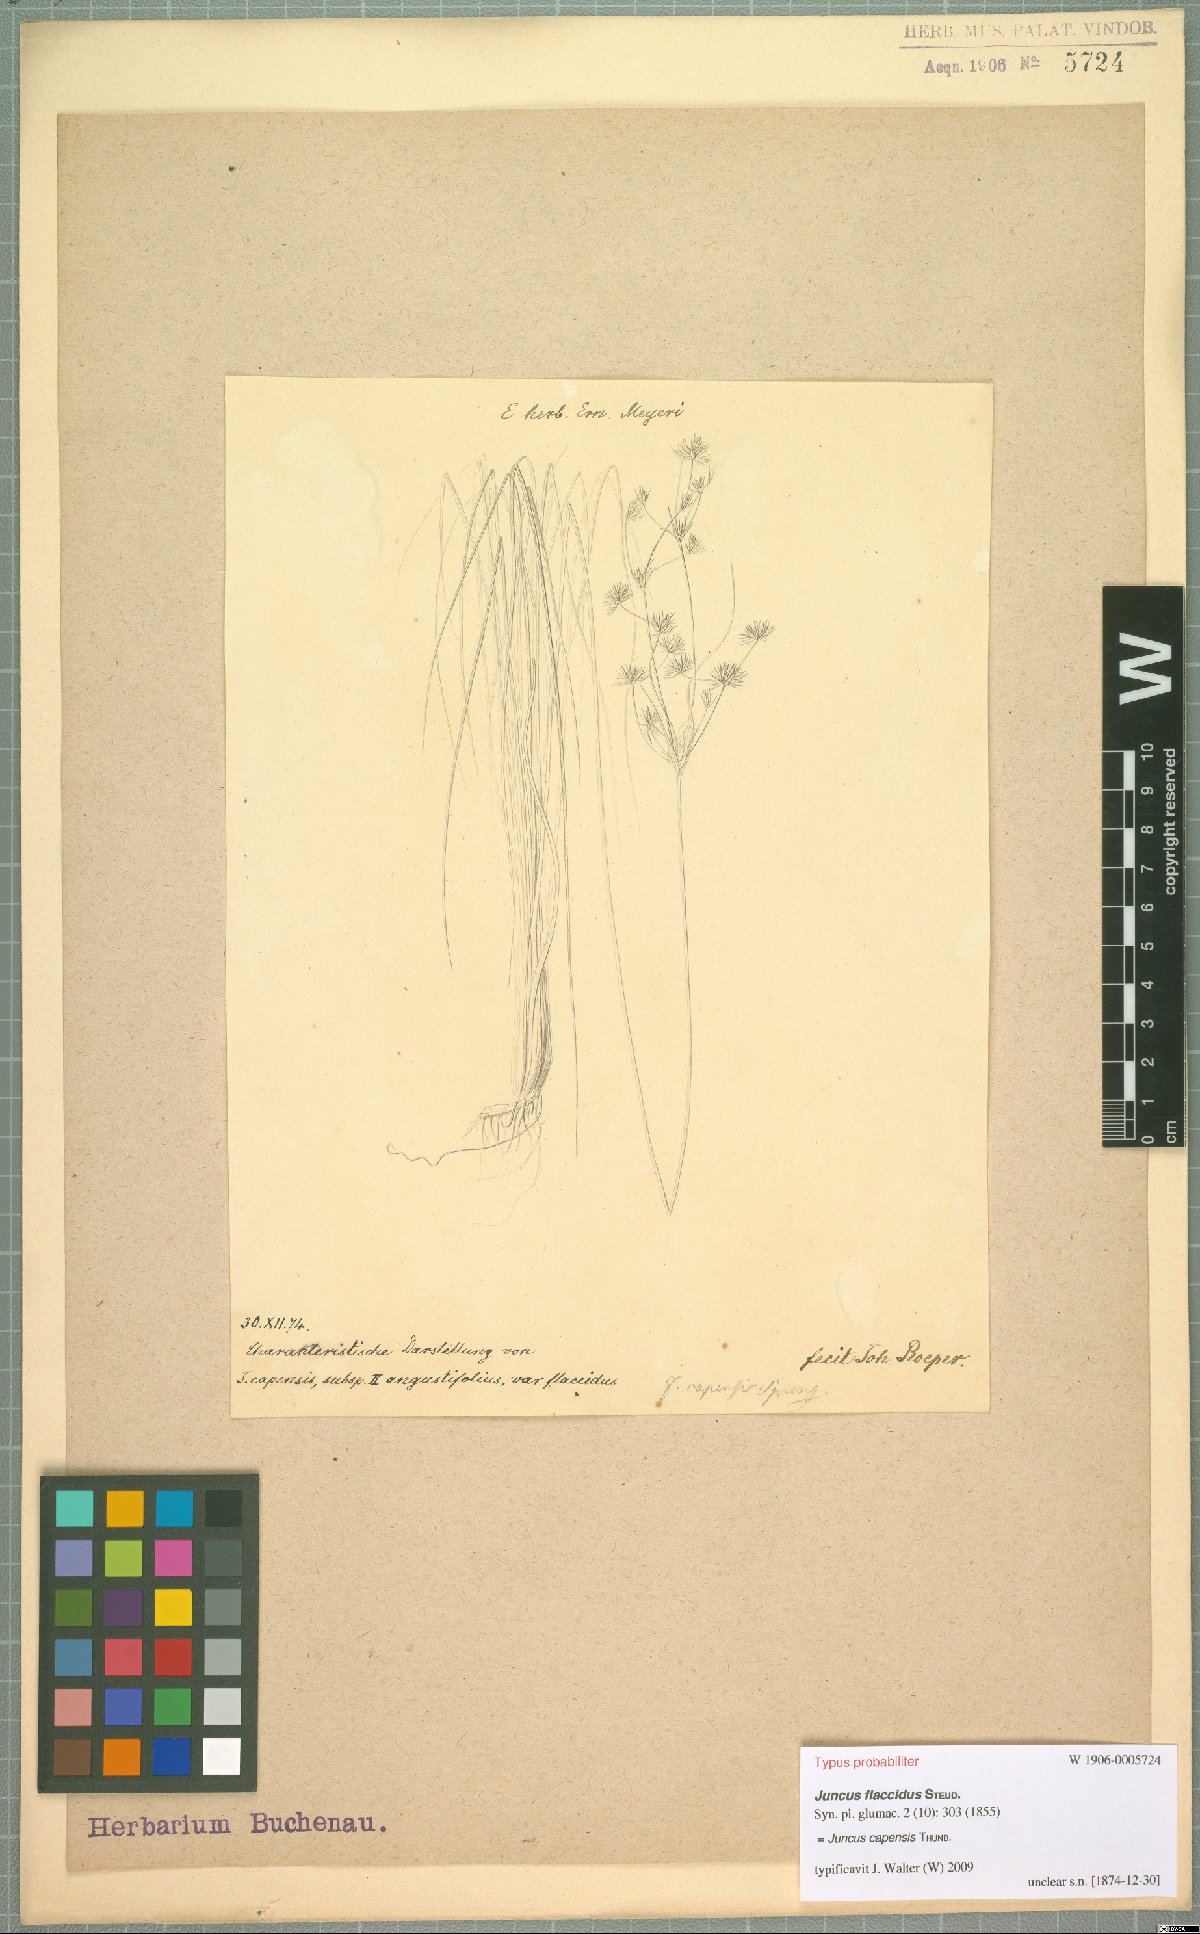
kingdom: Plantae
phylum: Tracheophyta
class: Liliopsida
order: Poales
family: Juncaceae
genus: Juncus
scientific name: Juncus capensis
